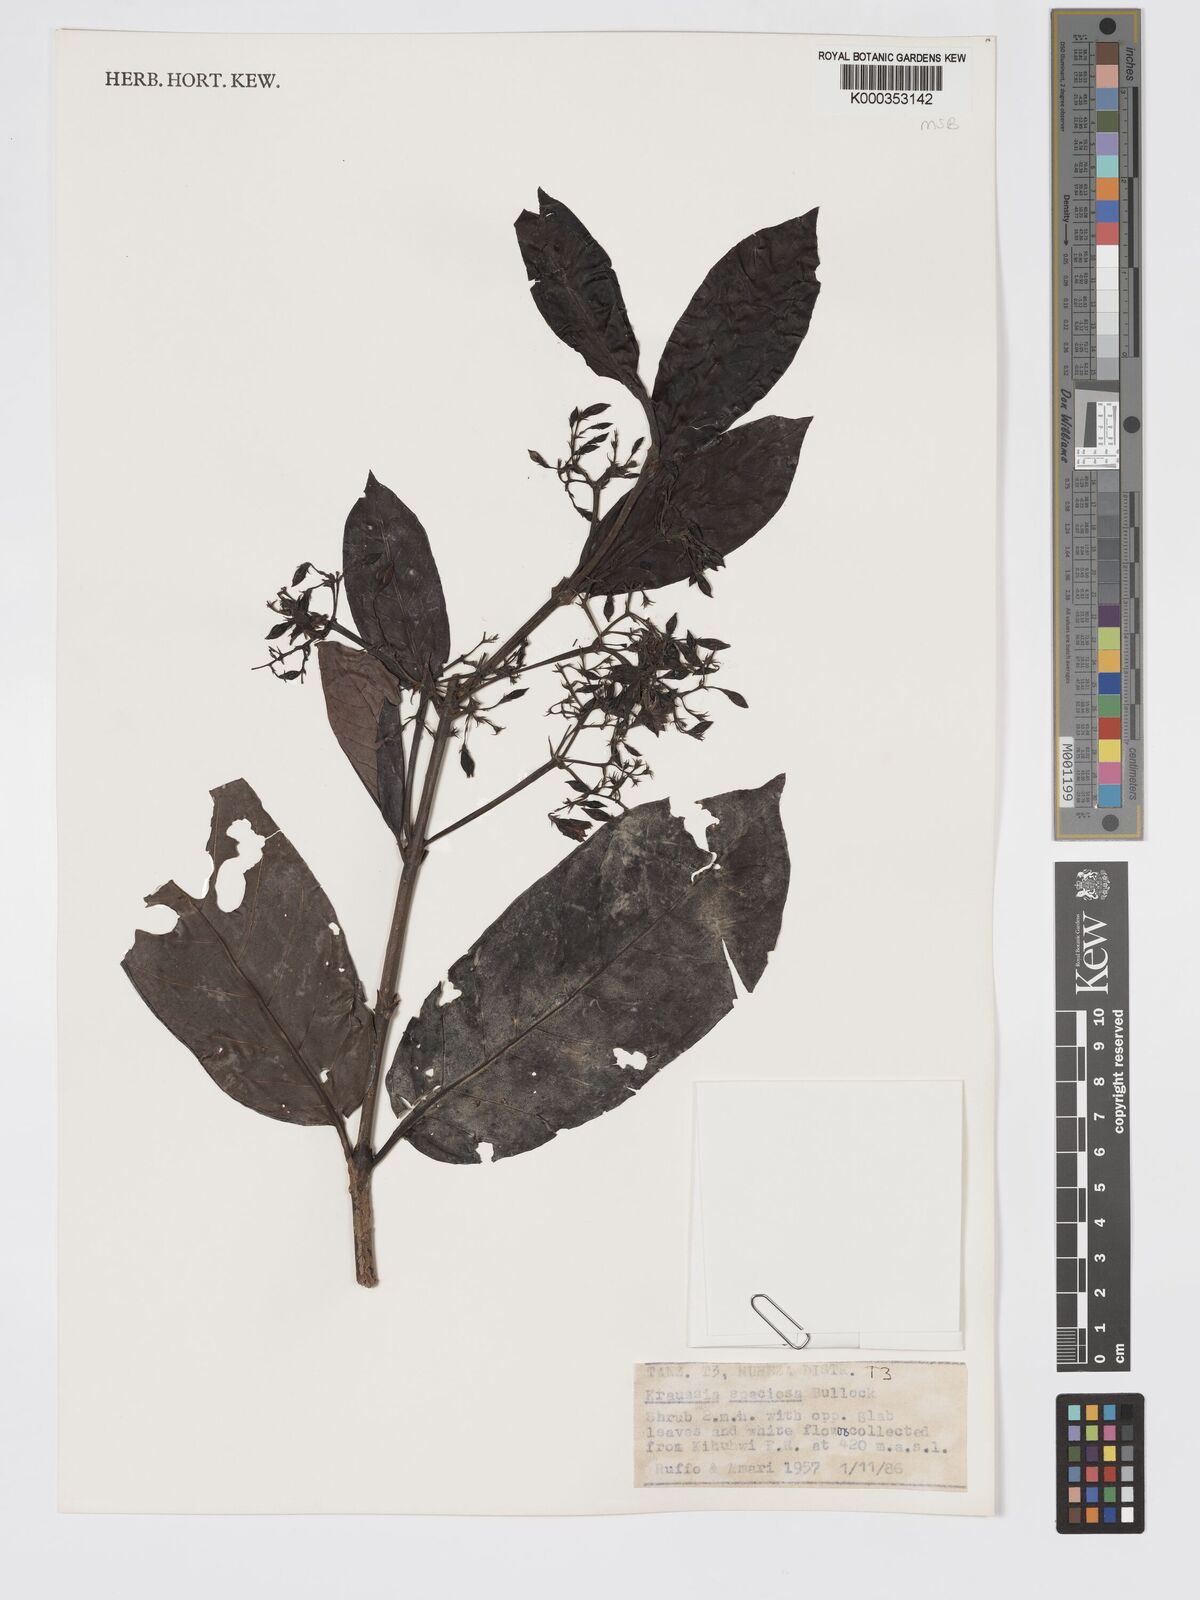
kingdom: Plantae
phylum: Tracheophyta
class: Magnoliopsida
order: Gentianales
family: Rubiaceae
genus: Kraussia
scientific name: Kraussia speciosa
